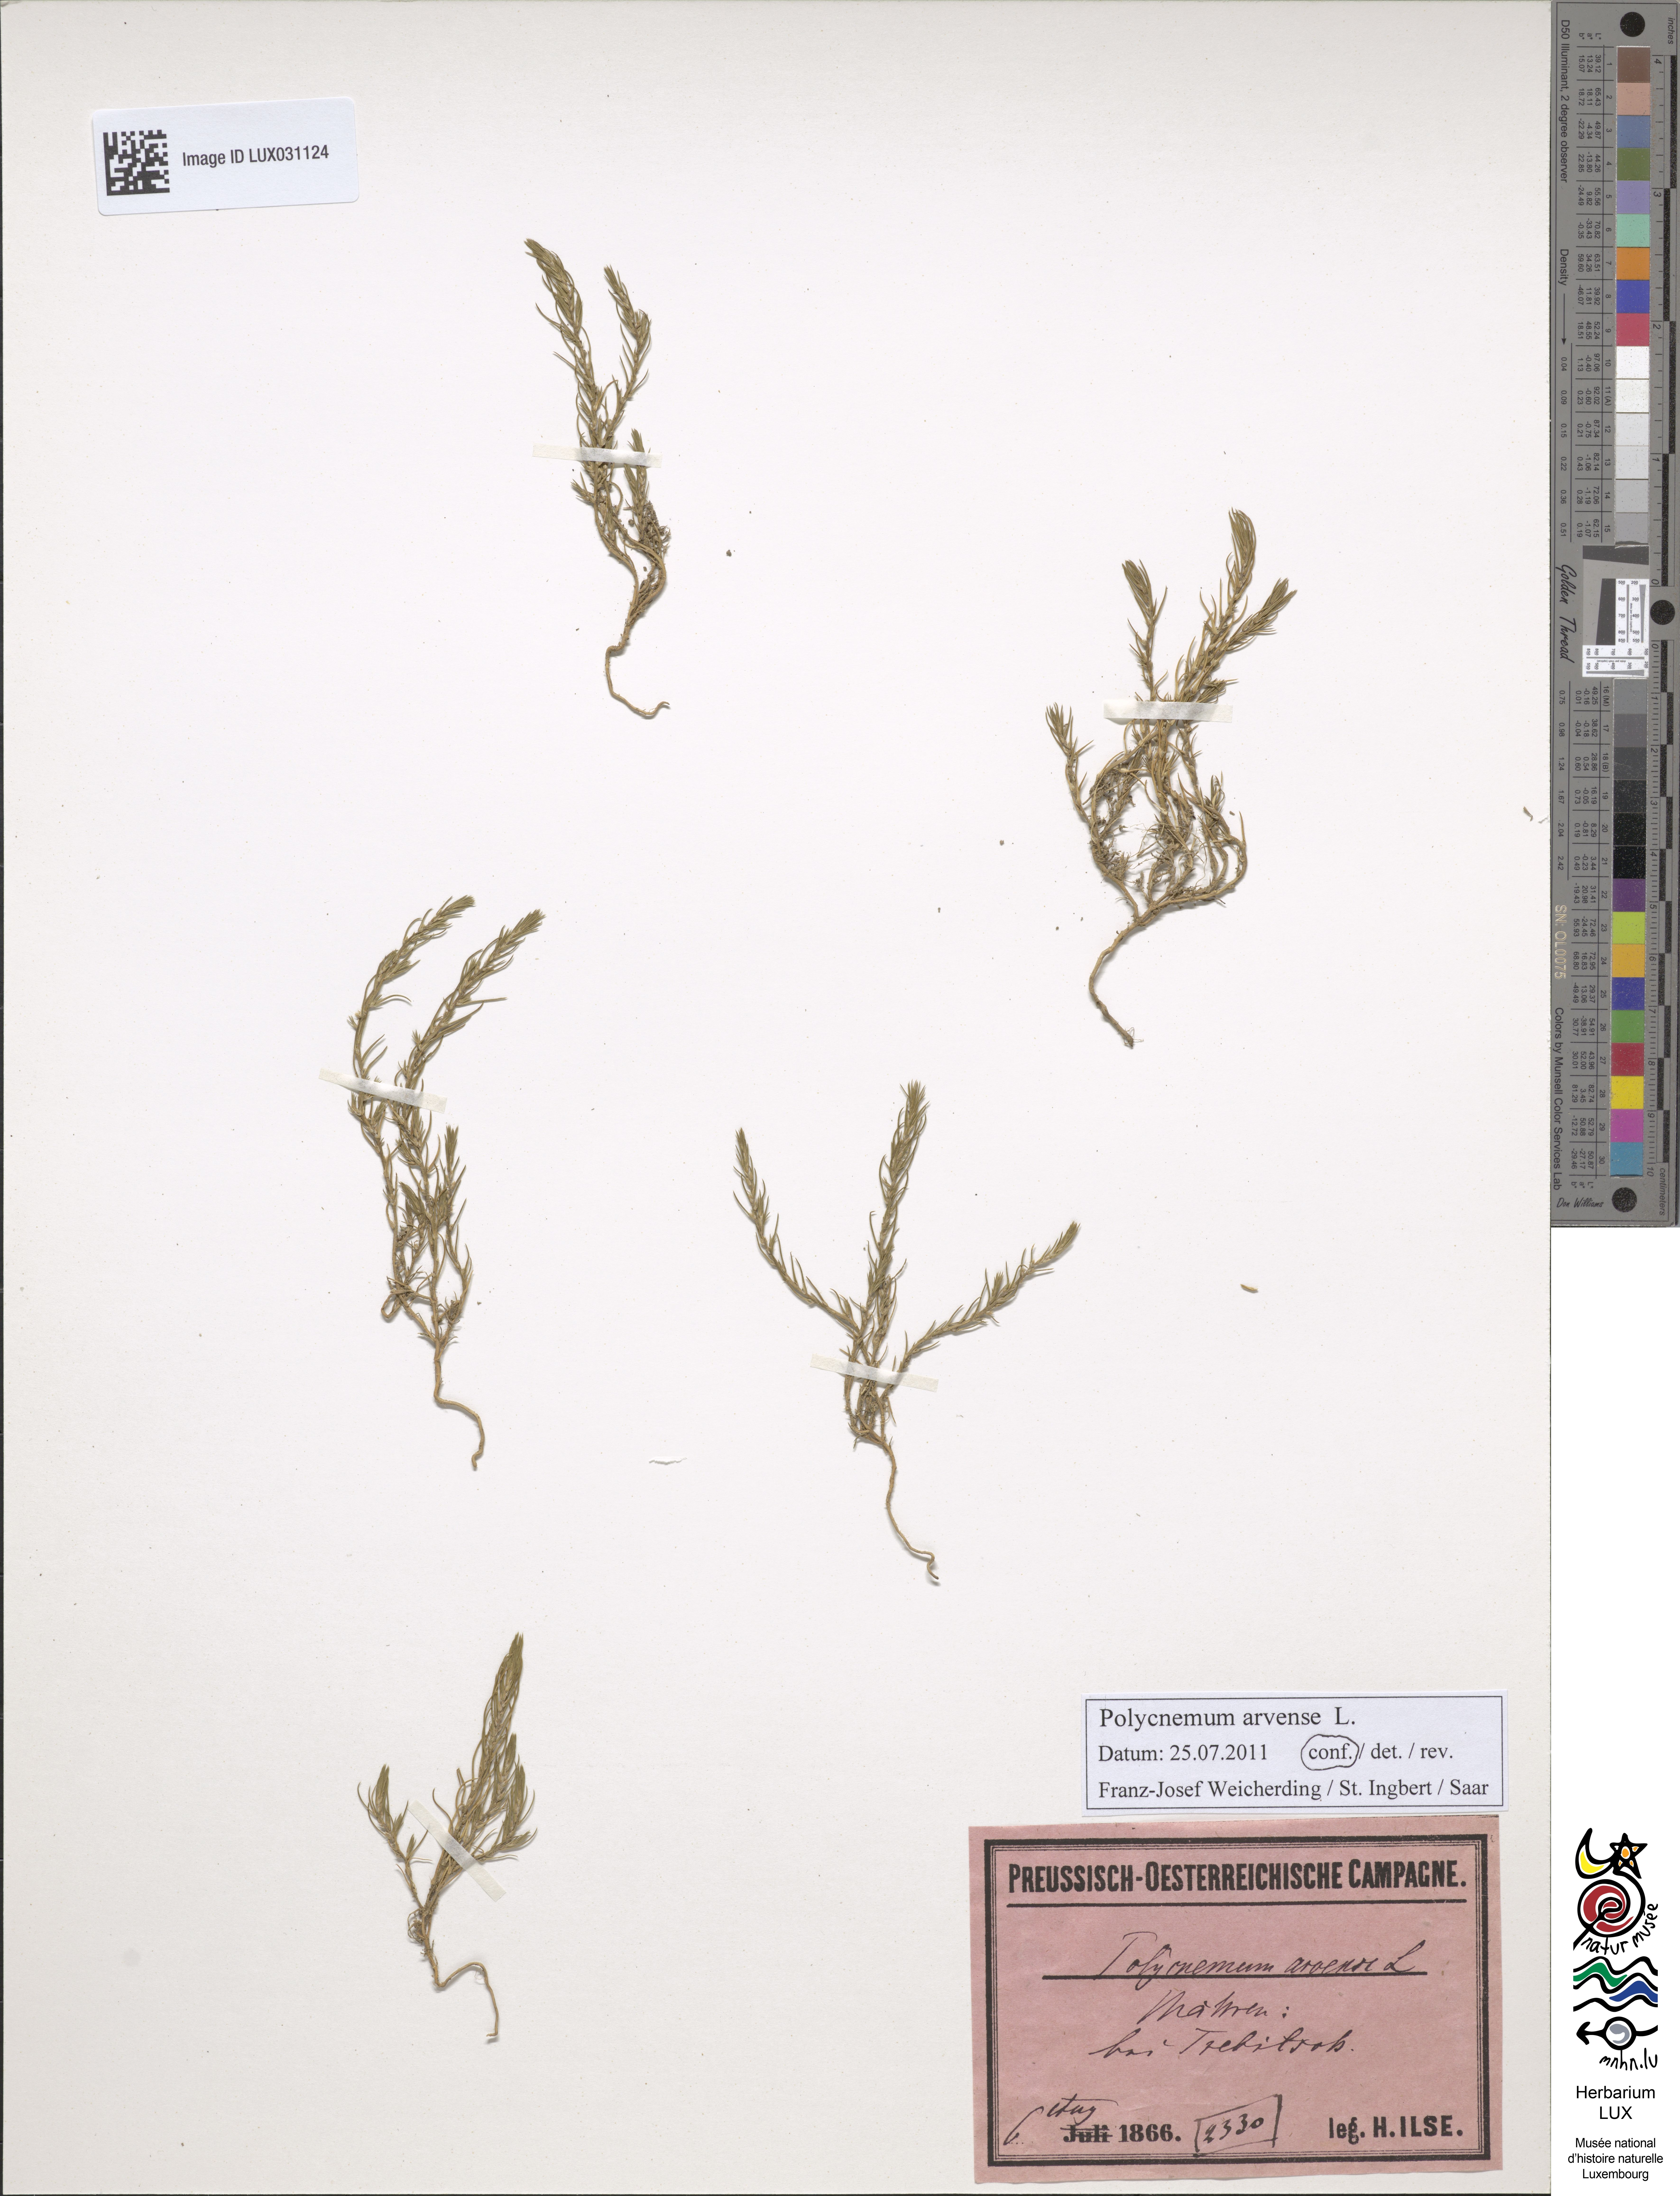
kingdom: Plantae
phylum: Tracheophyta
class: Magnoliopsida
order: Caryophyllales
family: Amaranthaceae
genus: Polycnemum
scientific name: Polycnemum arvense
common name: Soft needleleaf
